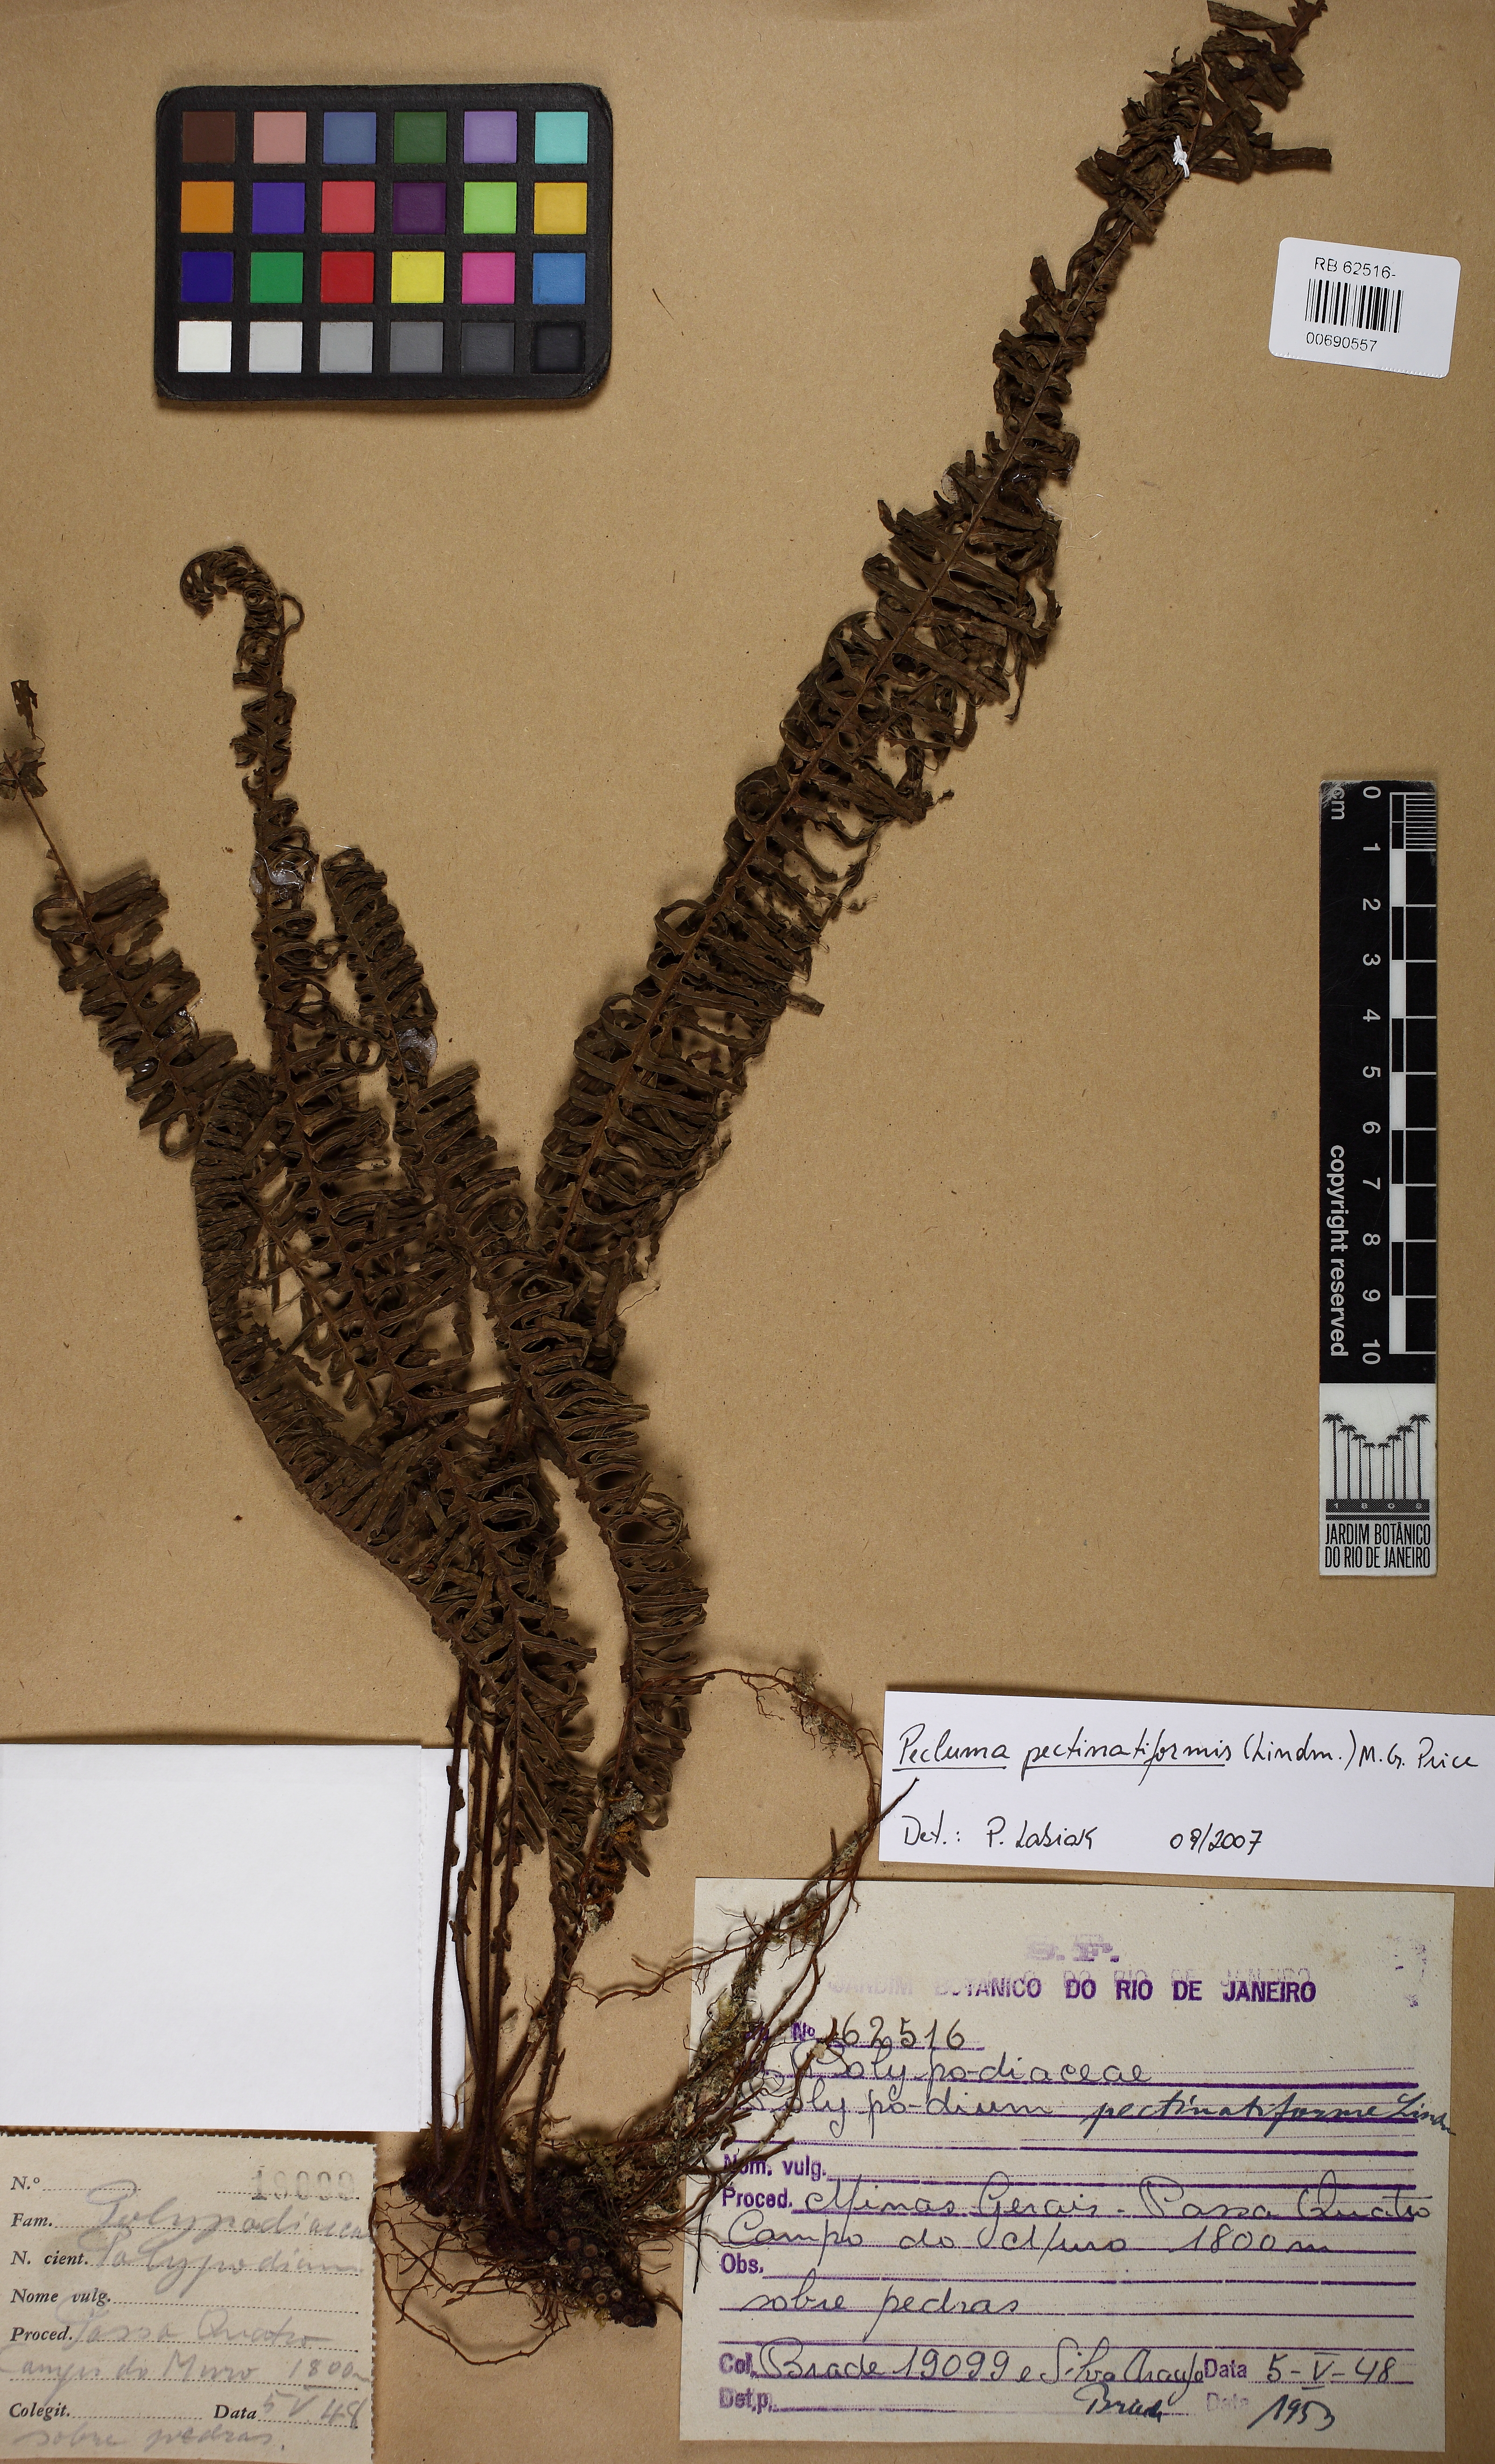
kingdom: Plantae
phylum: Tracheophyta
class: Polypodiopsida
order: Polypodiales
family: Polypodiaceae
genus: Pecluma
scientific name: Pecluma pectinatiformis
